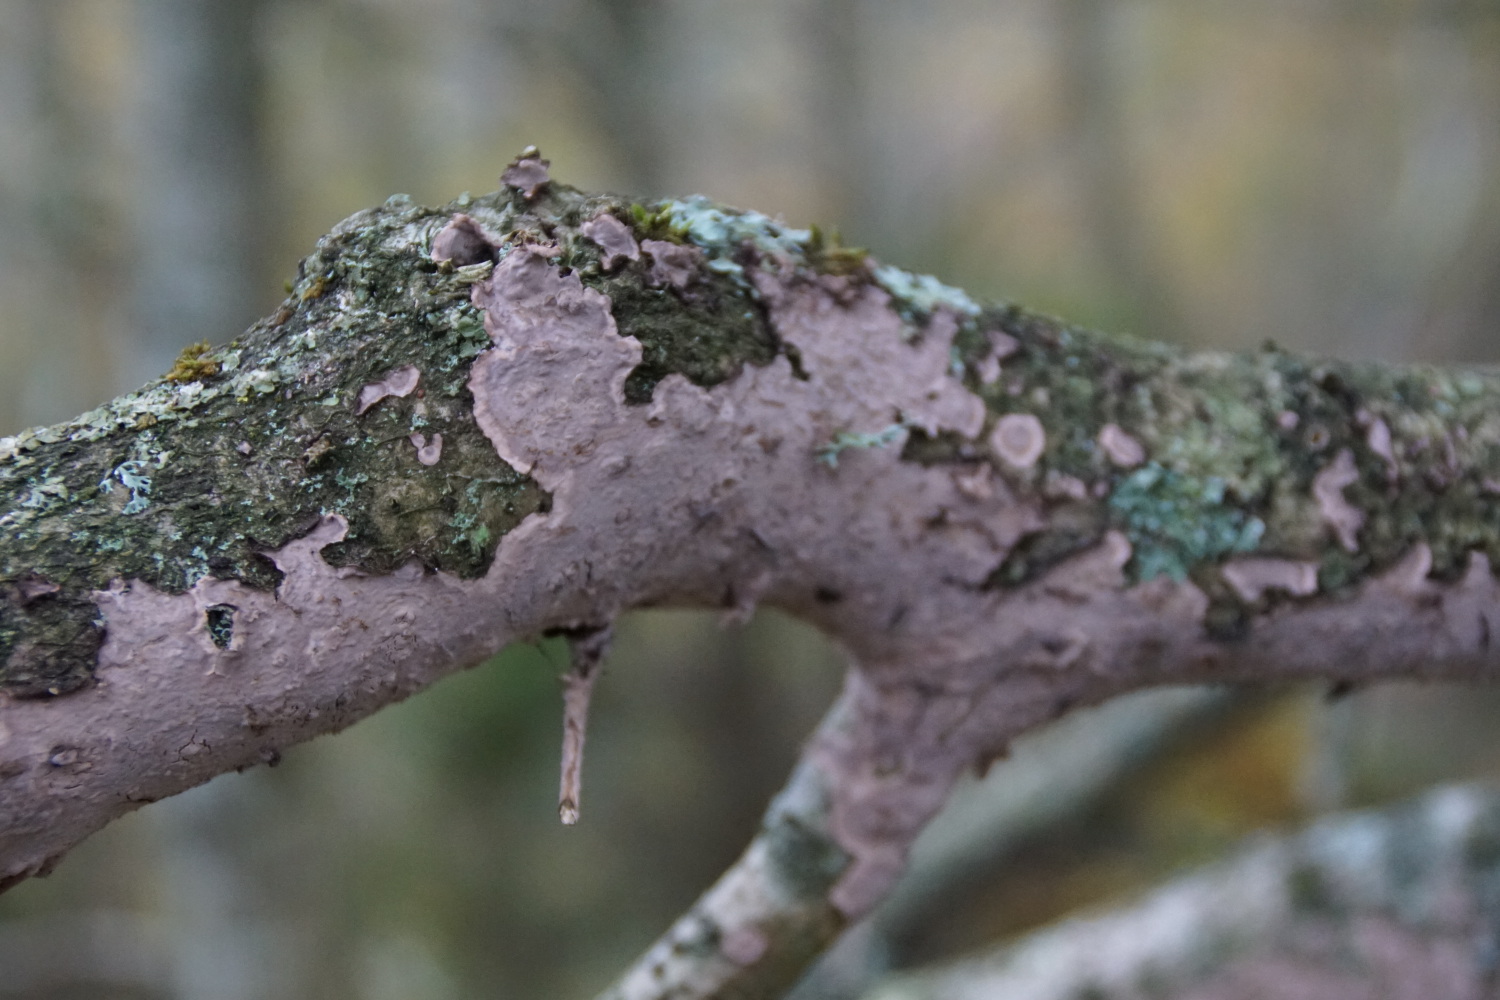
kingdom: Fungi
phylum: Basidiomycota
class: Agaricomycetes
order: Russulales
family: Peniophoraceae
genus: Peniophora
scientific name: Peniophora quercina
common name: ege-voksskind
